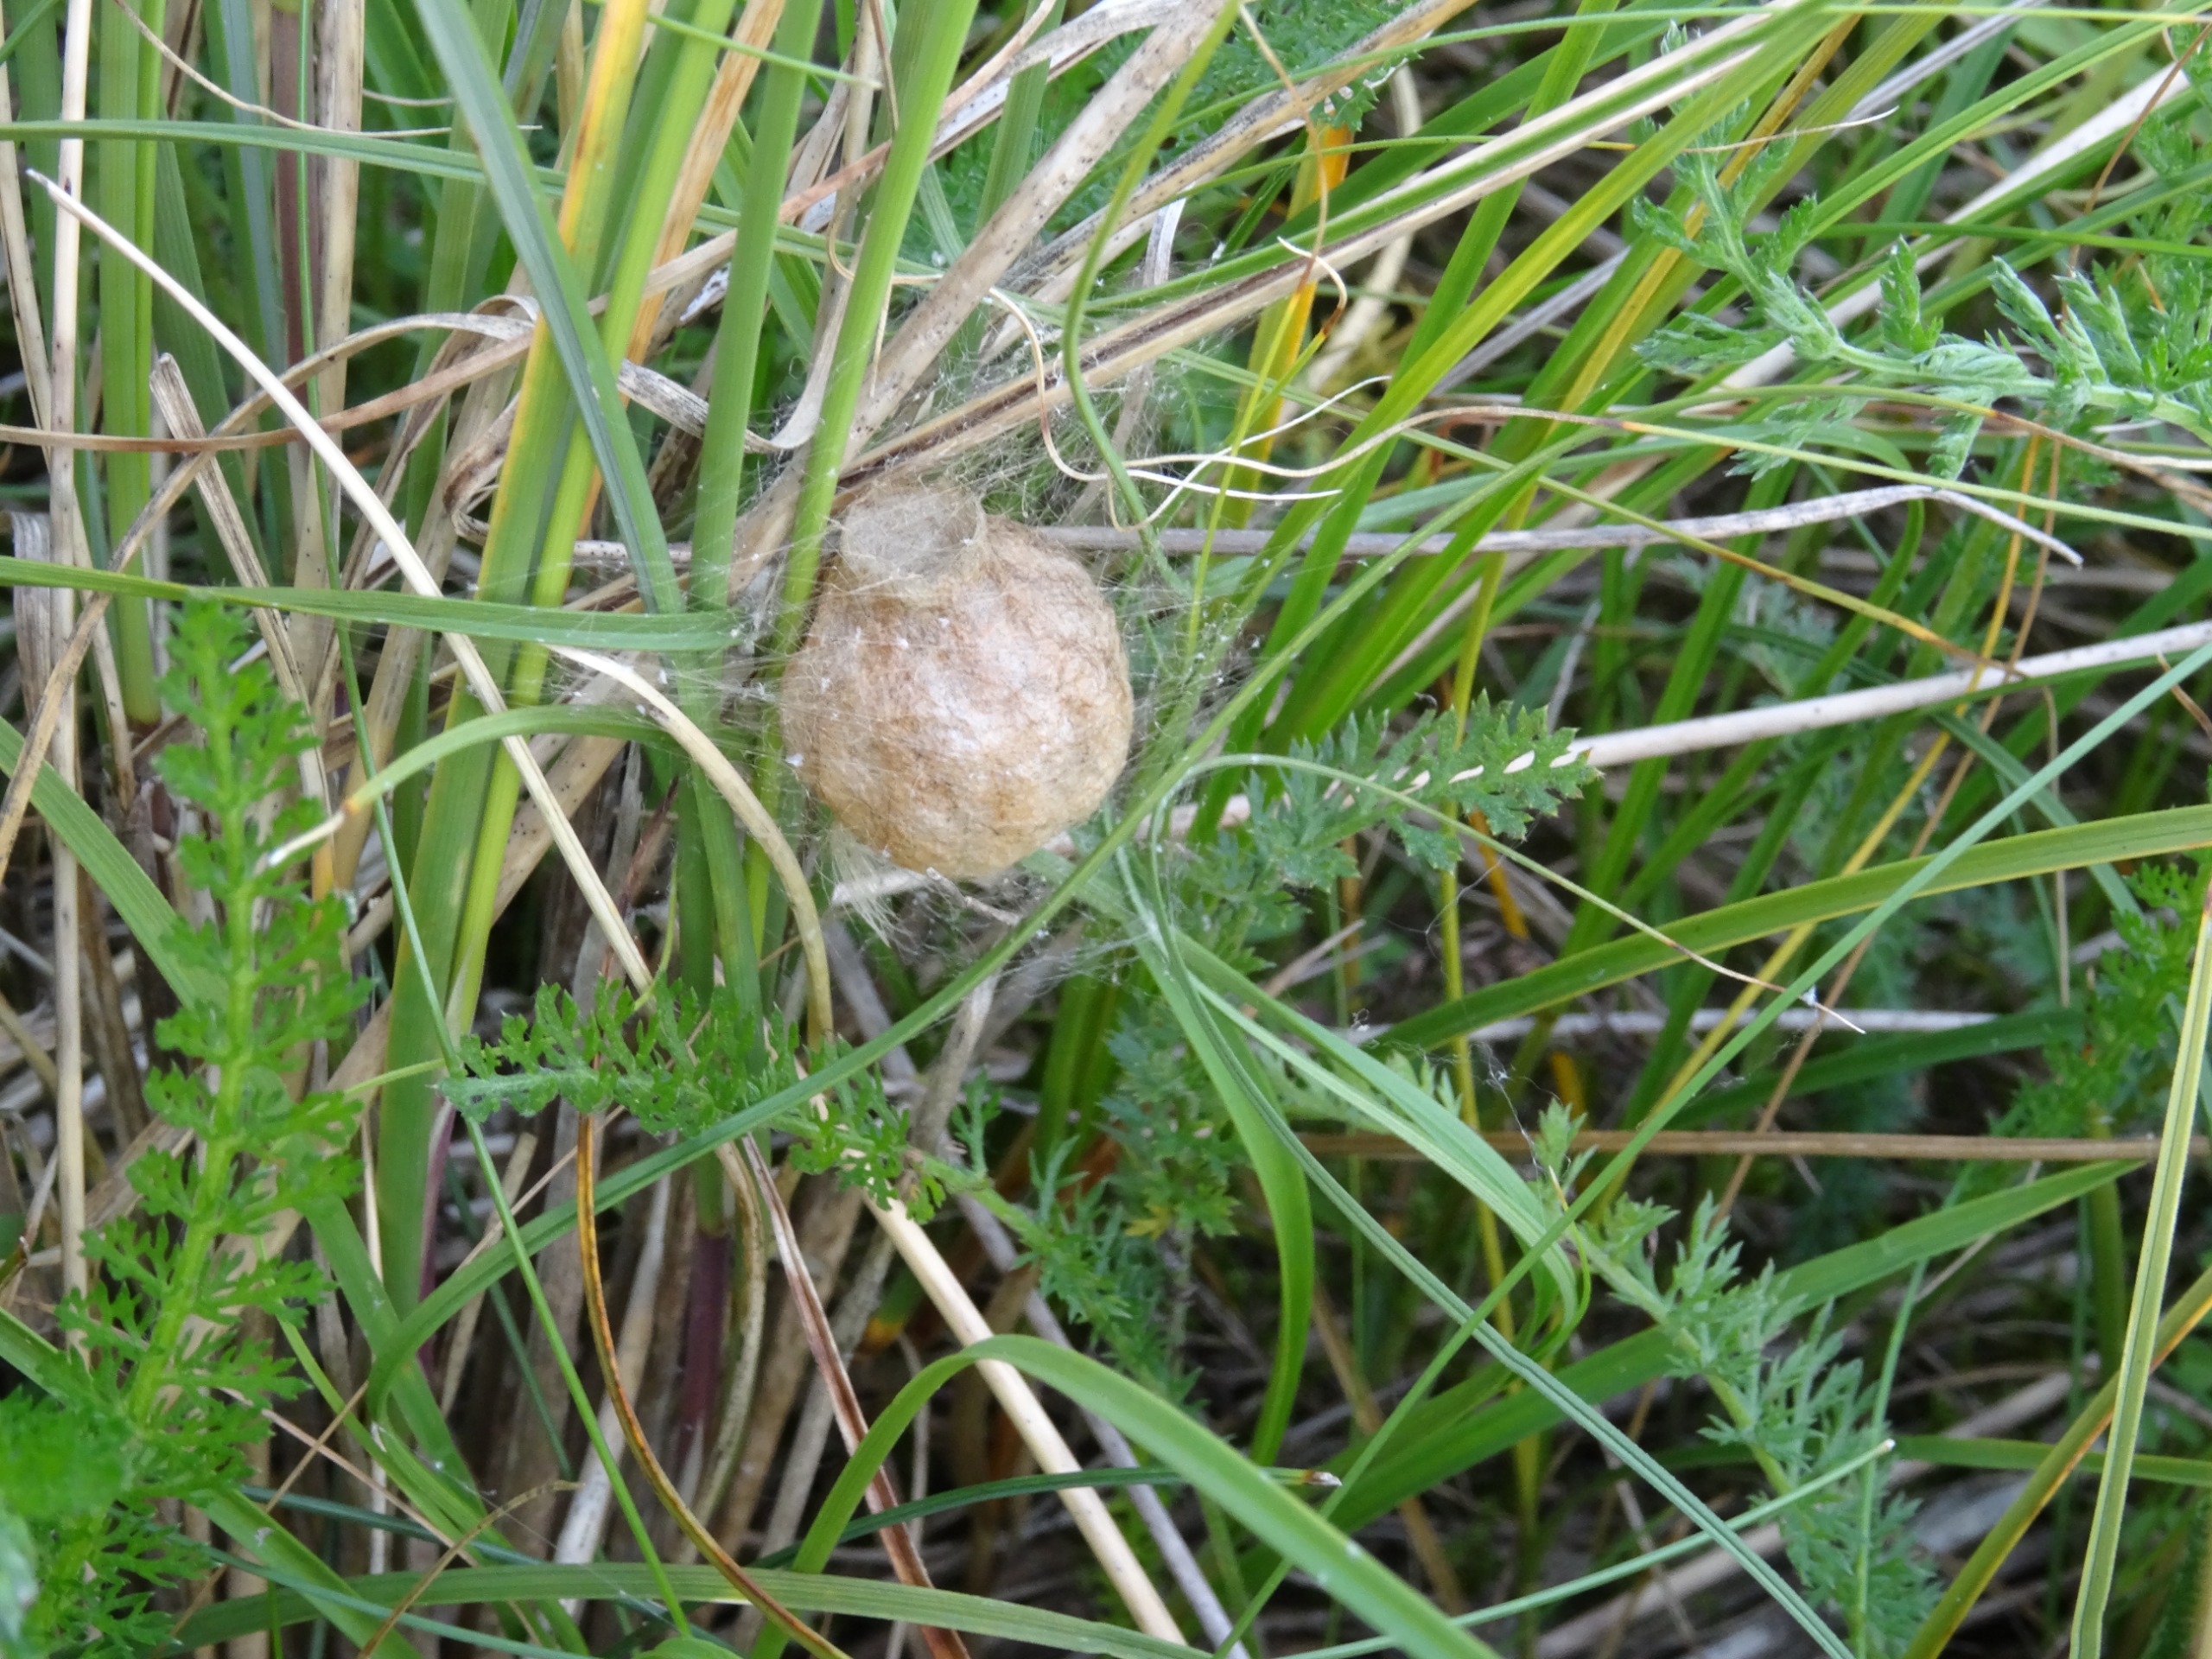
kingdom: Animalia
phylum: Arthropoda
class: Arachnida
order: Araneae
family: Araneidae
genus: Argiope
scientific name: Argiope bruennichi
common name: Hvepseedderkop
